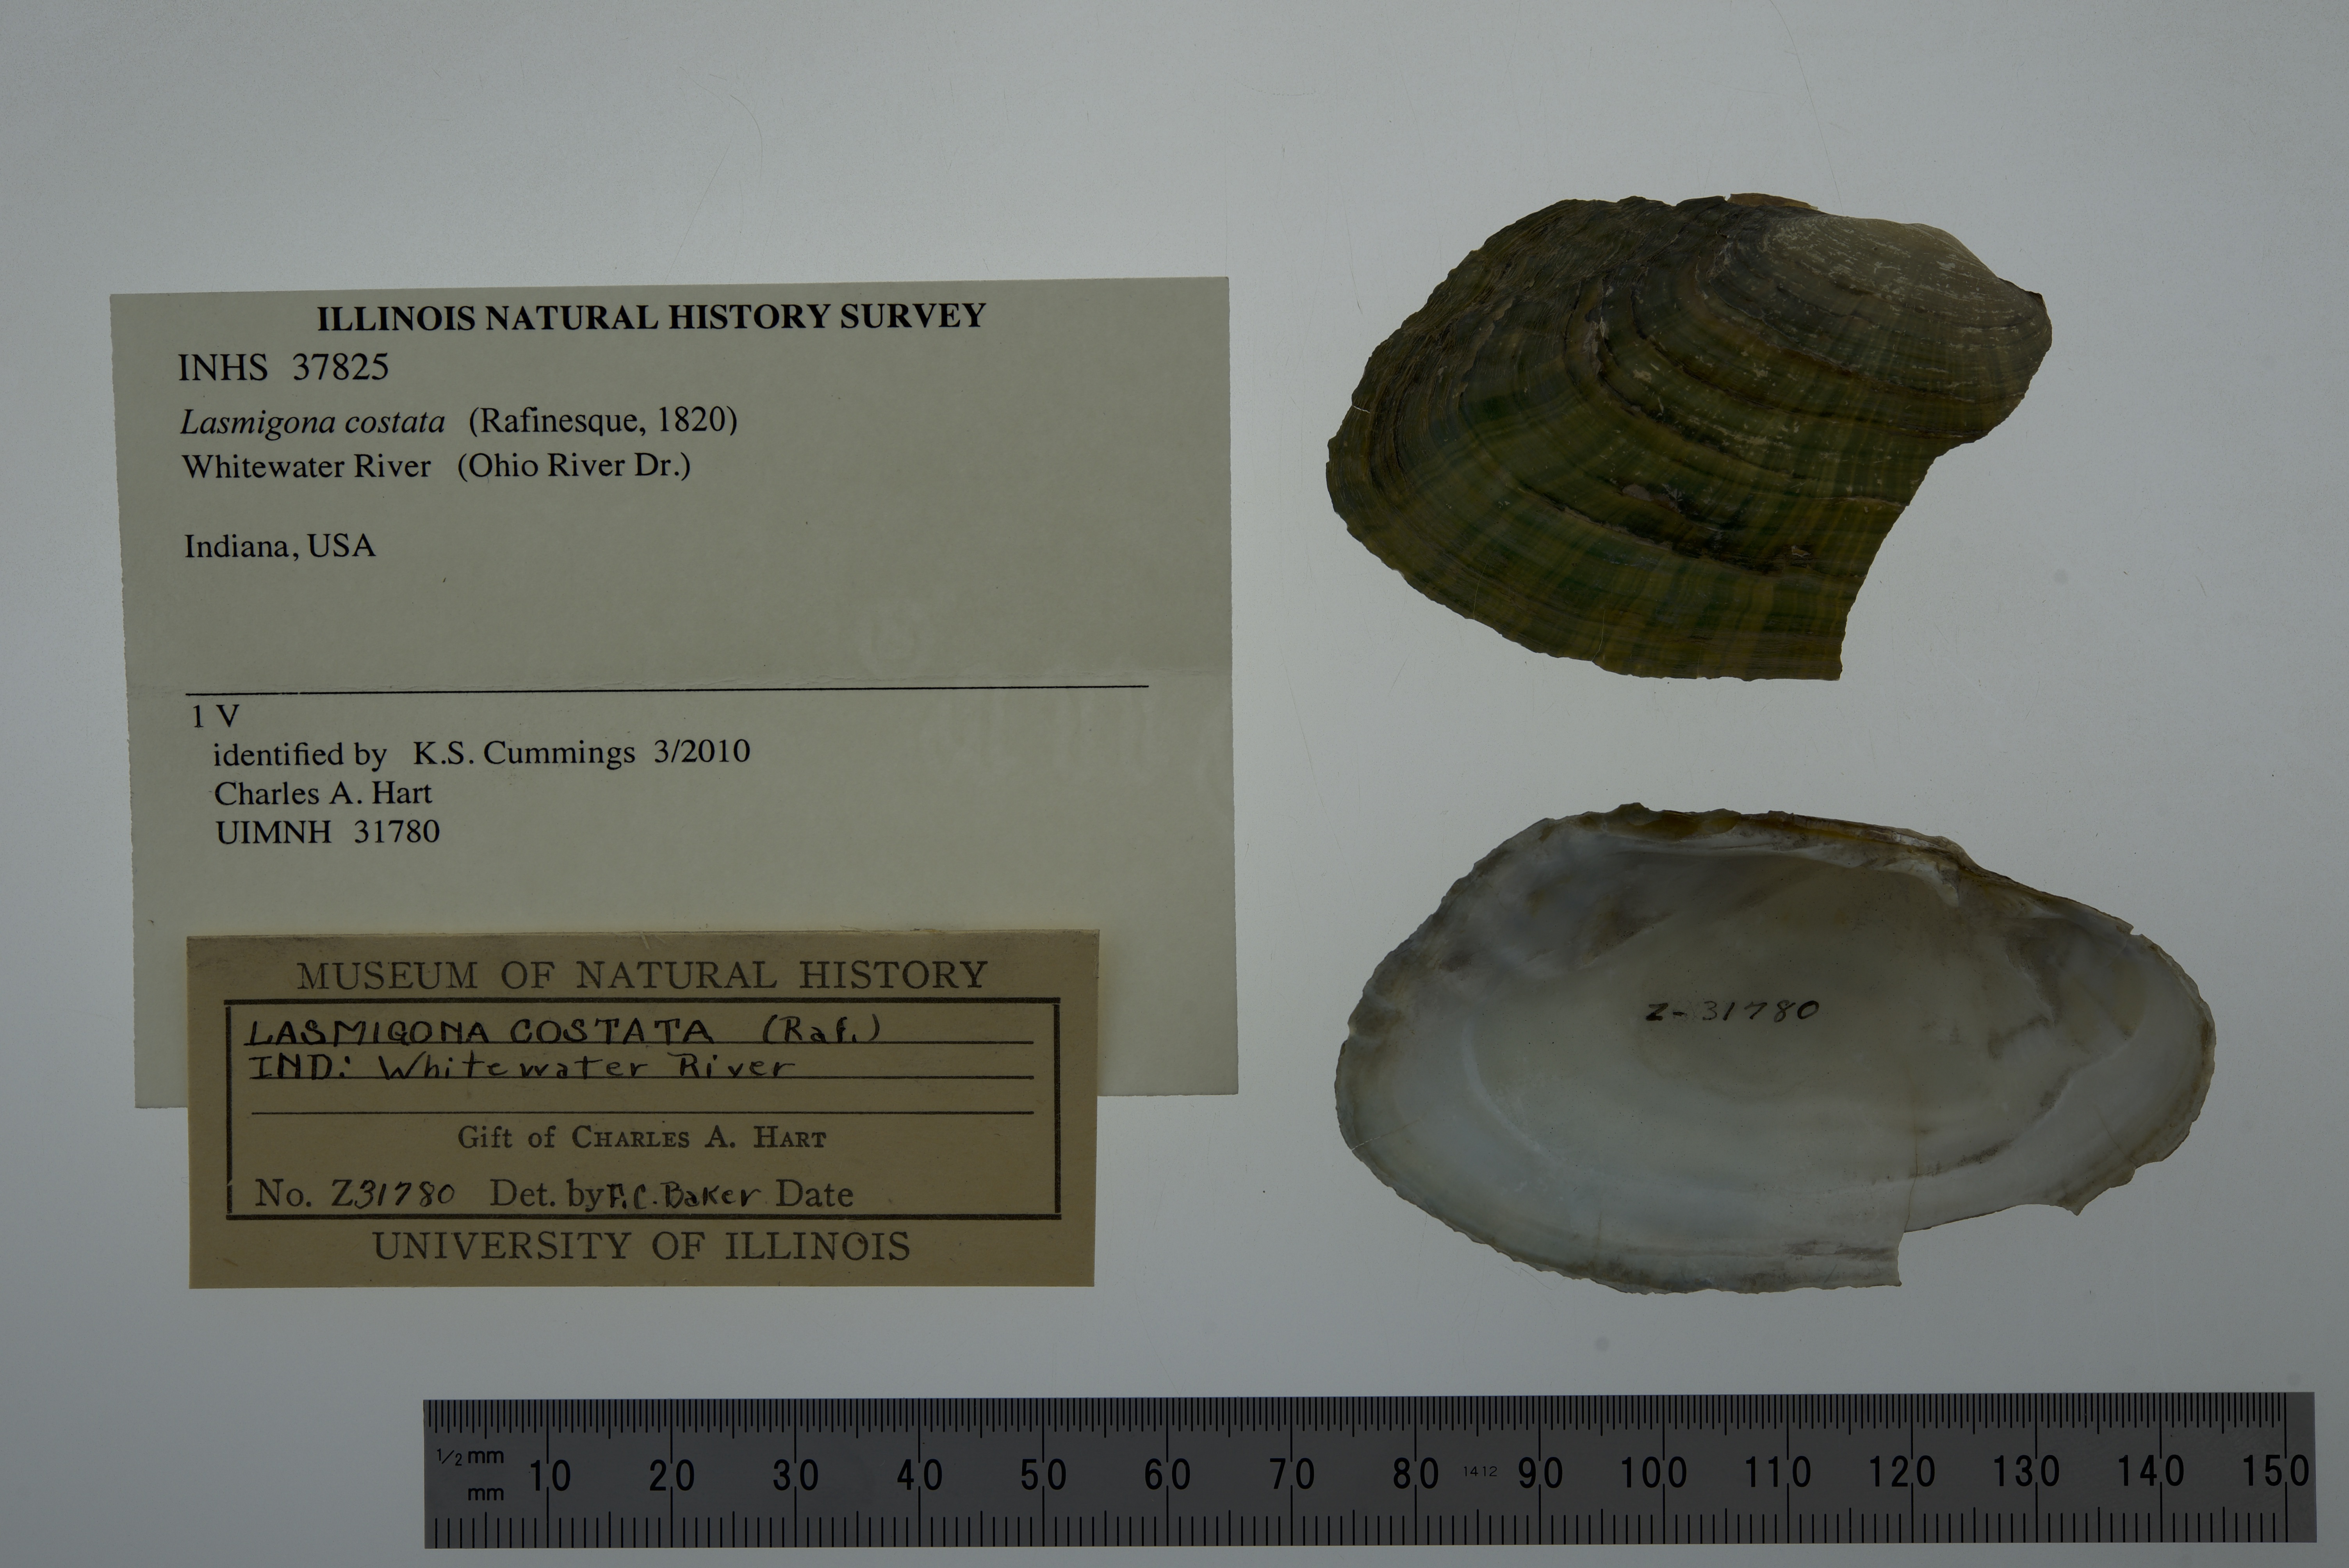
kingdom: Animalia
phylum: Mollusca
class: Bivalvia
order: Unionida
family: Unionidae
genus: Lasmigona
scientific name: Lasmigona costata
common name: Flutedshell
